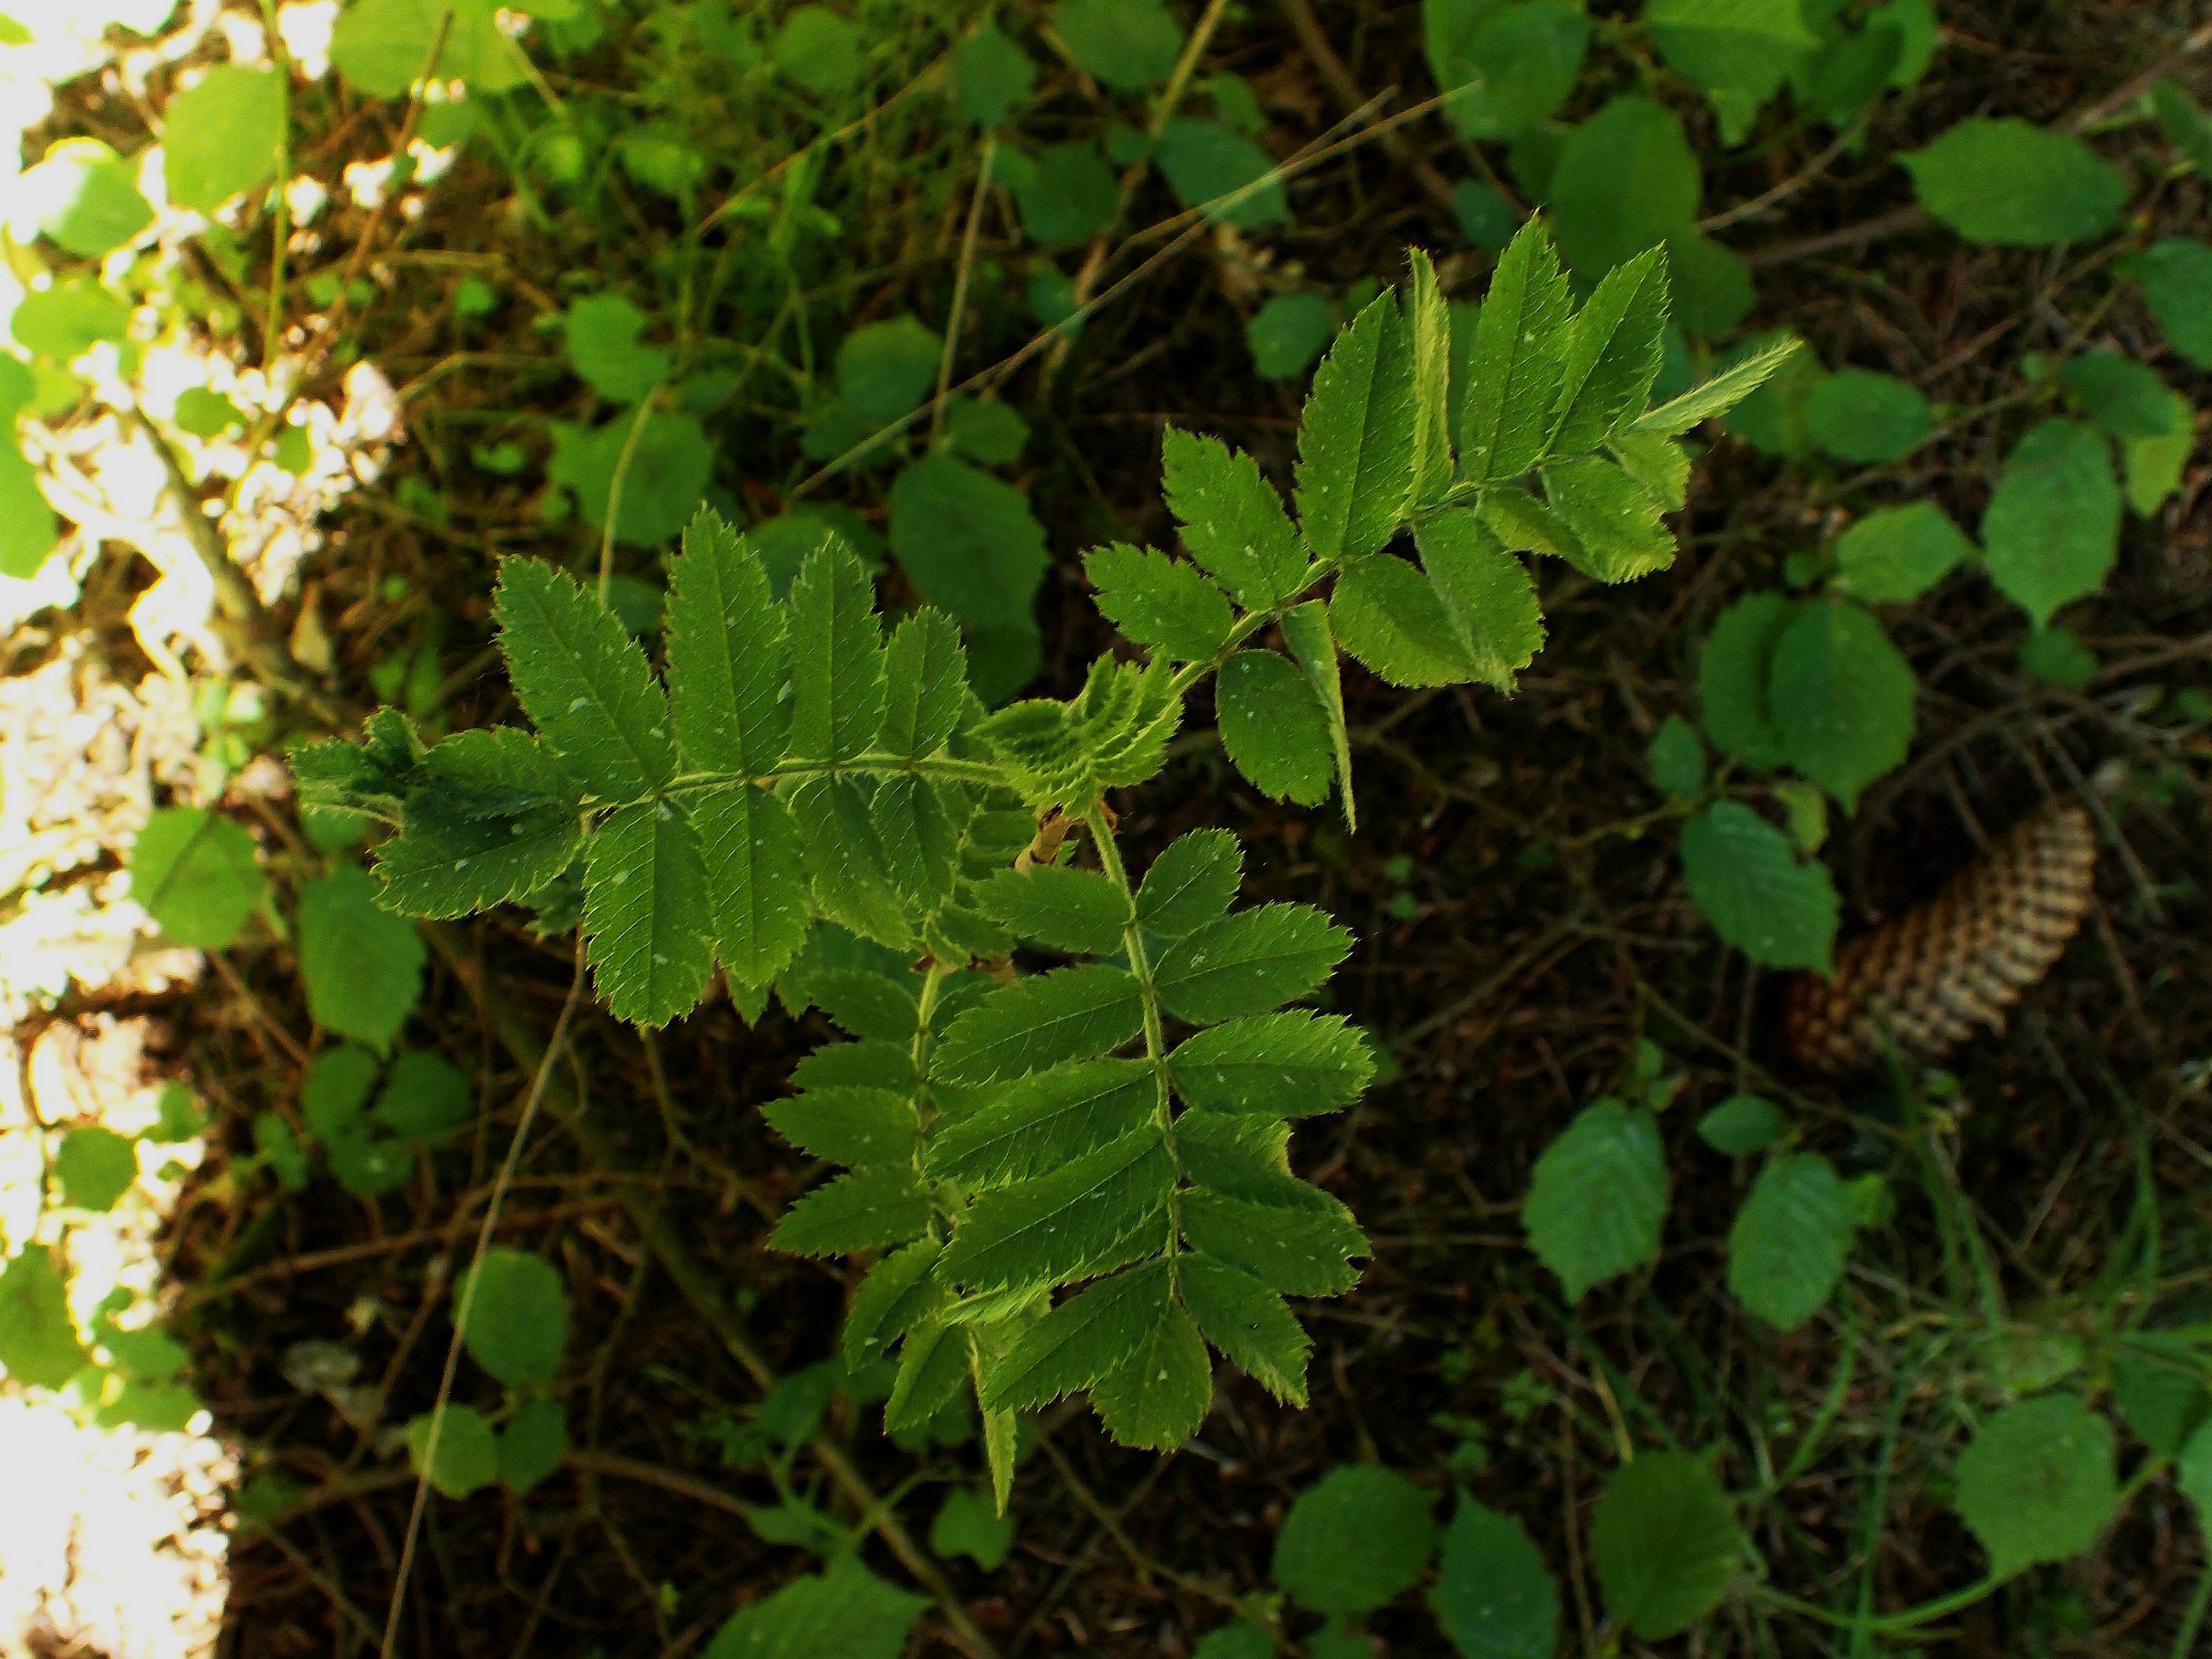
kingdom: Plantae
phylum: Tracheophyta
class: Magnoliopsida
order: Rosales
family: Rosaceae
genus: Sorbus
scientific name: Sorbus aucuparia
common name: Almindelig røn
